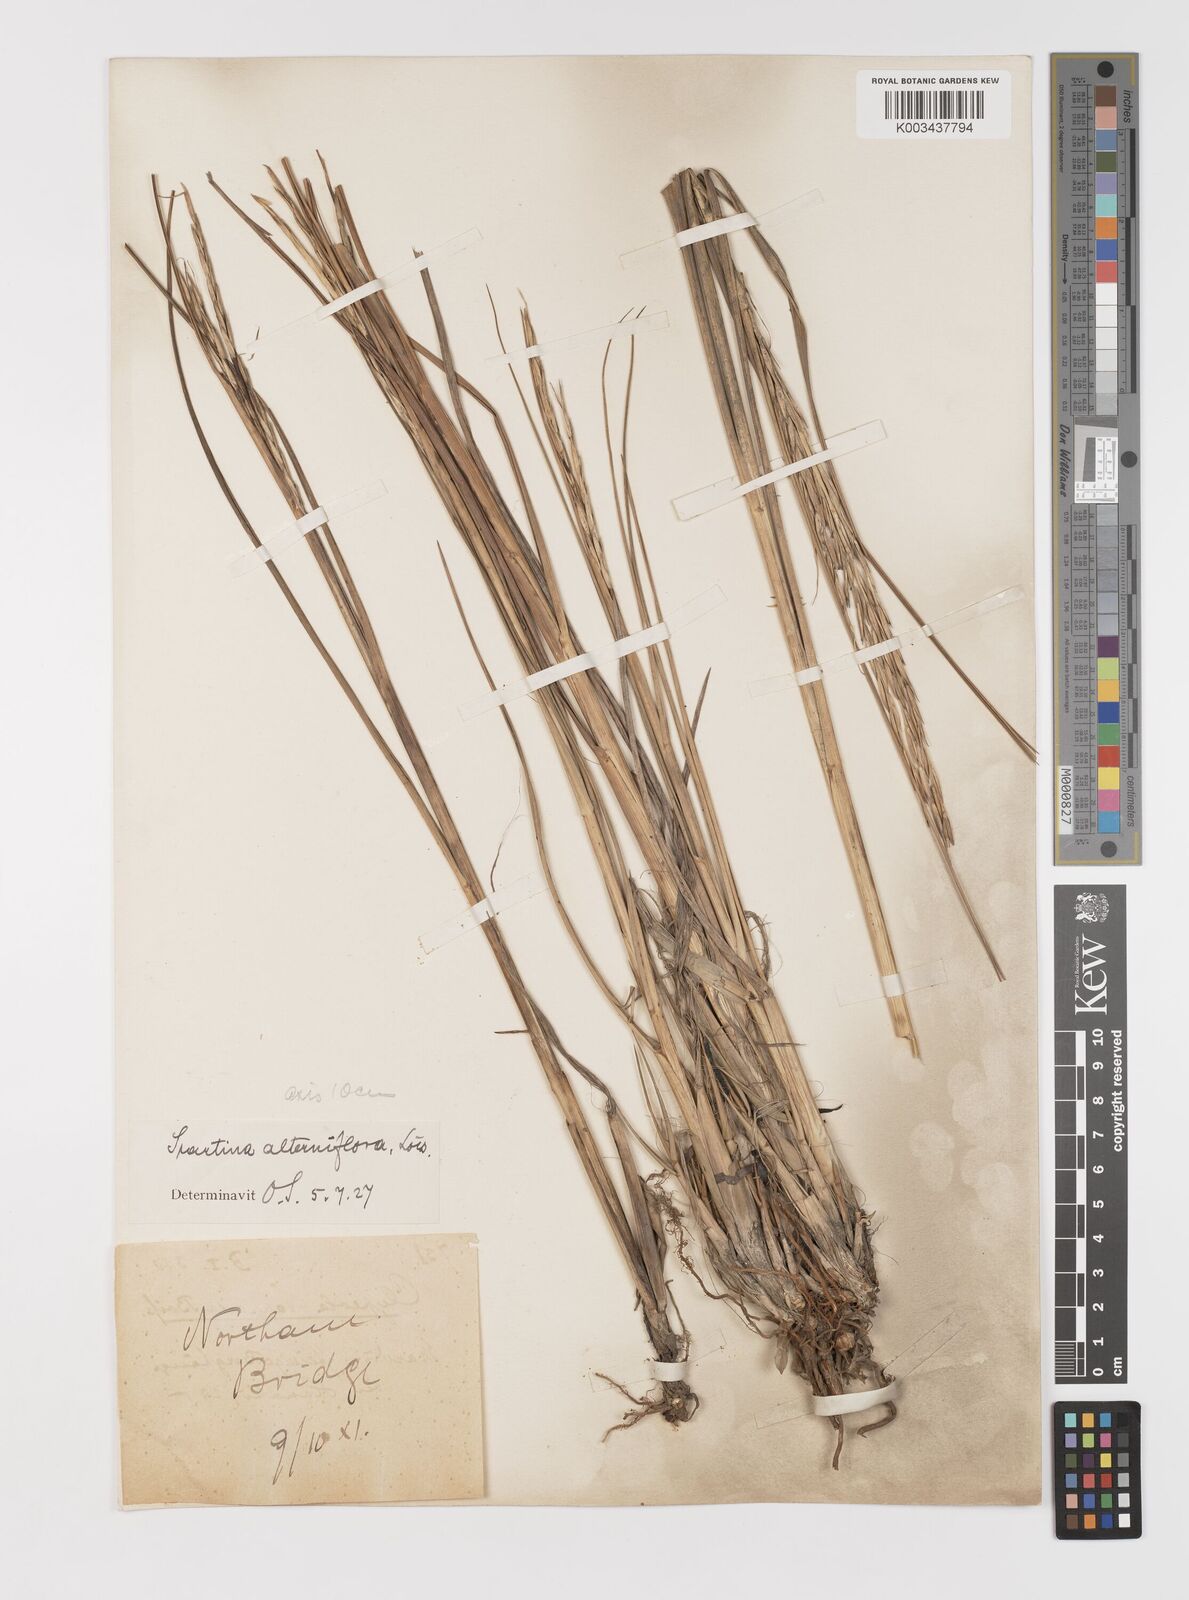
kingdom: Plantae
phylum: Tracheophyta
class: Liliopsida
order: Poales
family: Poaceae
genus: Sporobolus
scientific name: Sporobolus alterniflorus
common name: Atlantic cordgrass
